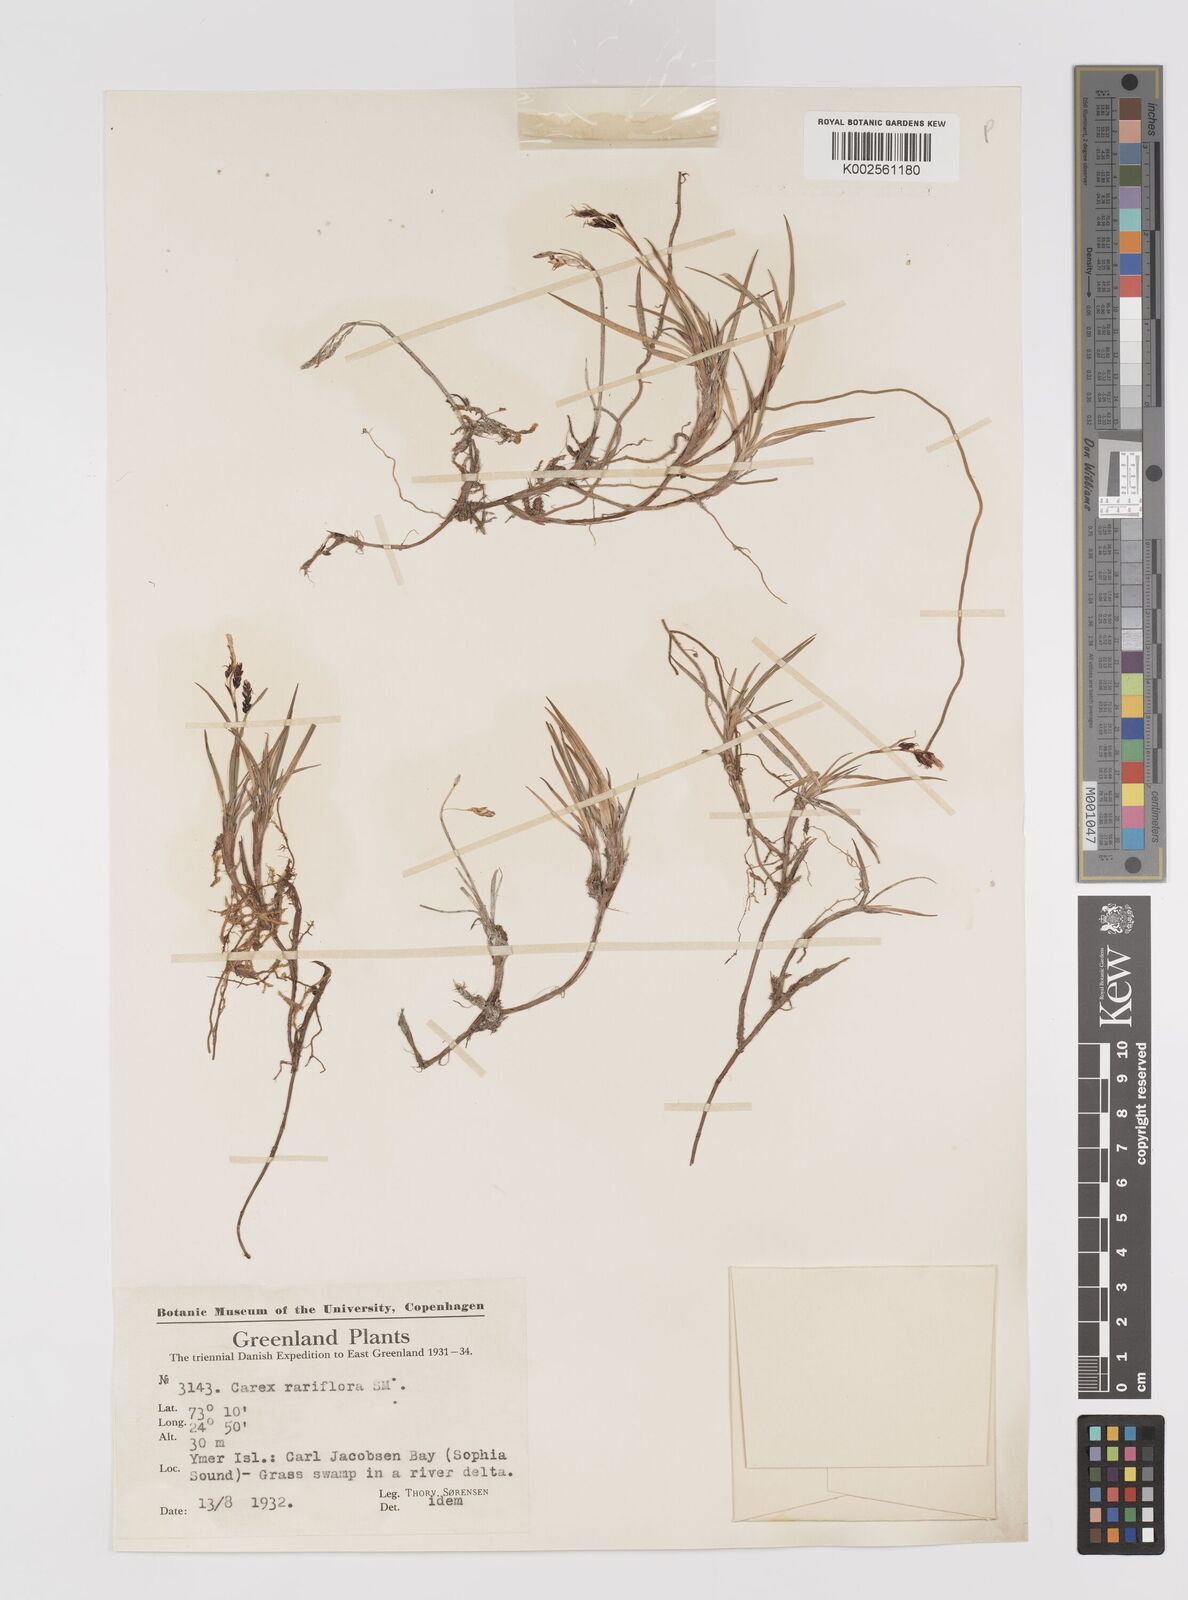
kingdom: Plantae
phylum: Tracheophyta
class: Liliopsida
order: Poales
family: Cyperaceae
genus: Carex
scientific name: Carex rariflora
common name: Loose-flowered alpine sedge
